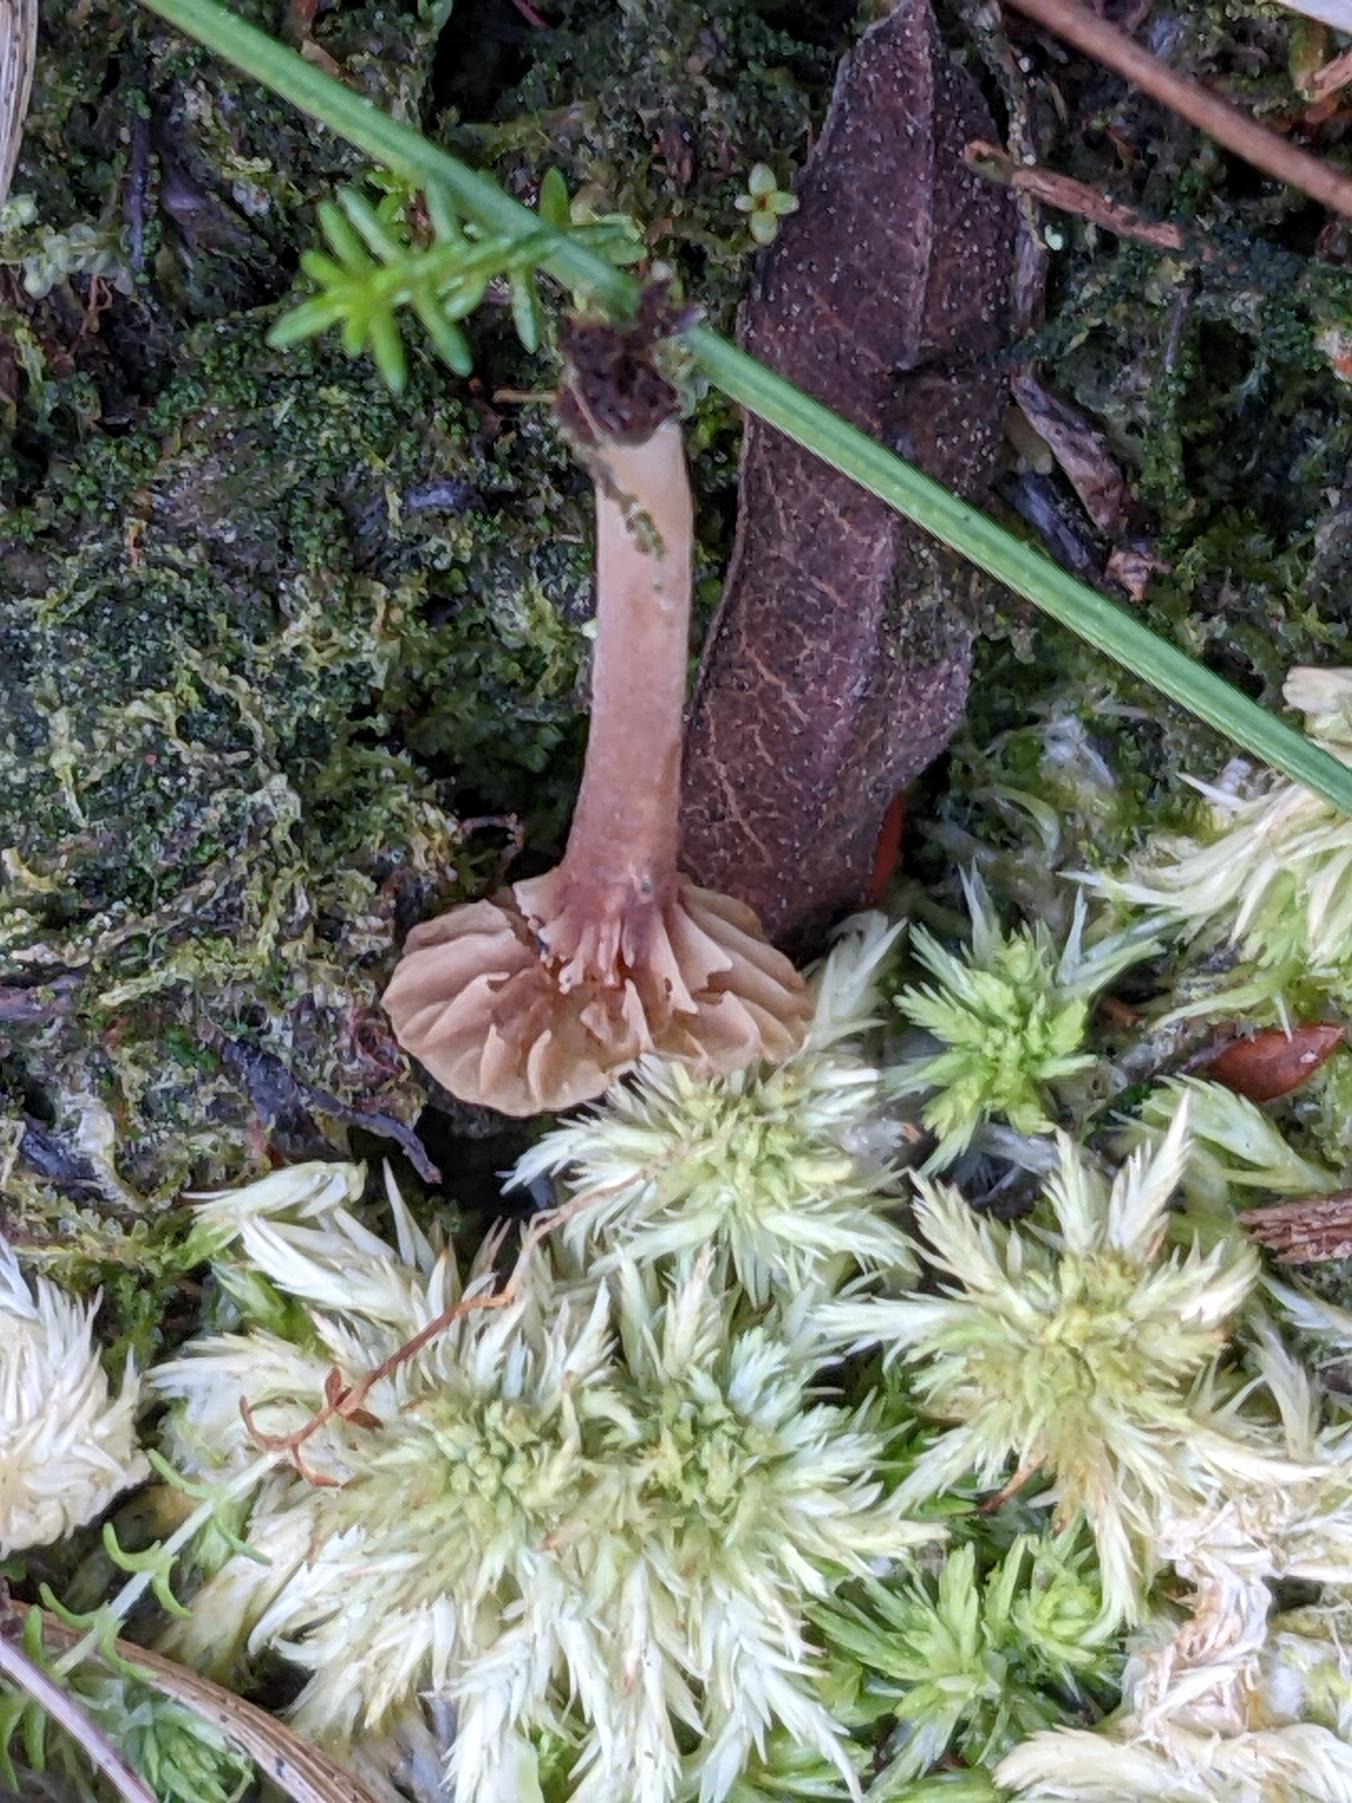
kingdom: Fungi
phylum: Basidiomycota
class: Agaricomycetes
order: Agaricales
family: Hygrophoraceae
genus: Lichenomphalia
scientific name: Lichenomphalia umbellifera
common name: Tørve-lavhat
